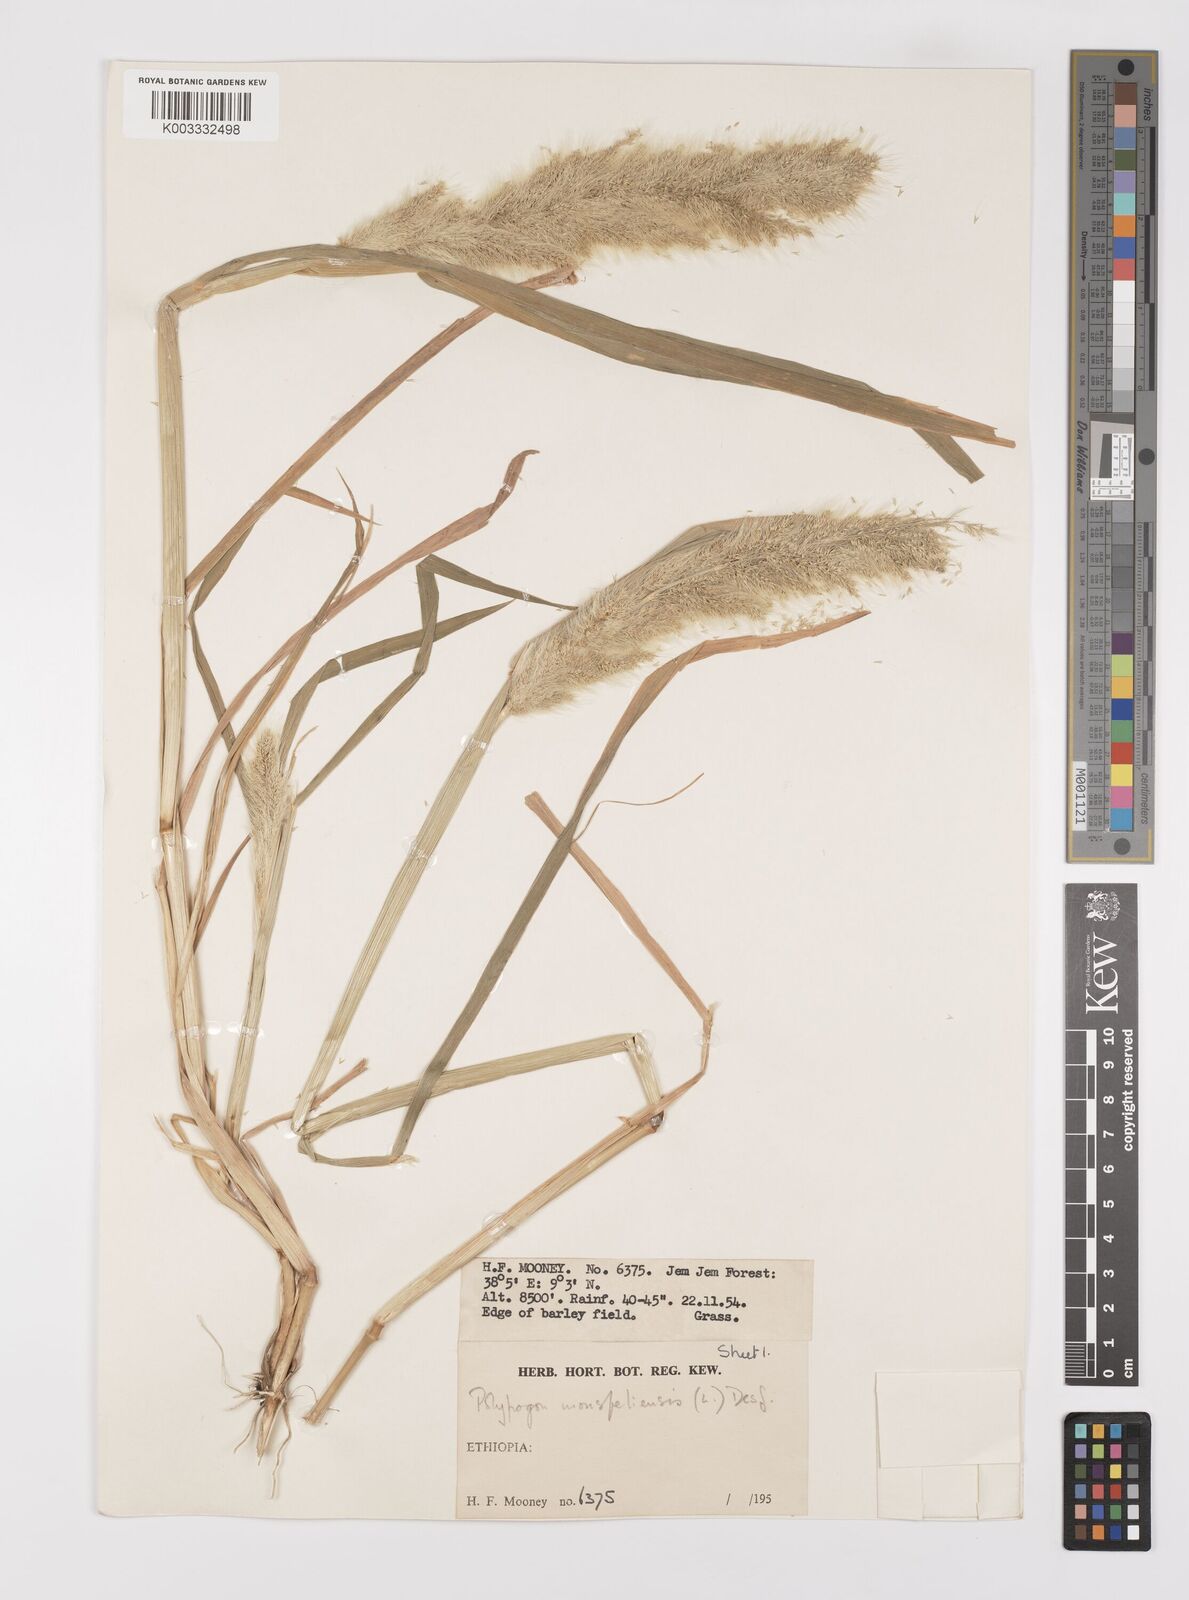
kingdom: Plantae
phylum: Tracheophyta
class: Liliopsida
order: Poales
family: Poaceae
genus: Polypogon
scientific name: Polypogon monspeliensis
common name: Annual rabbitsfoot grass
